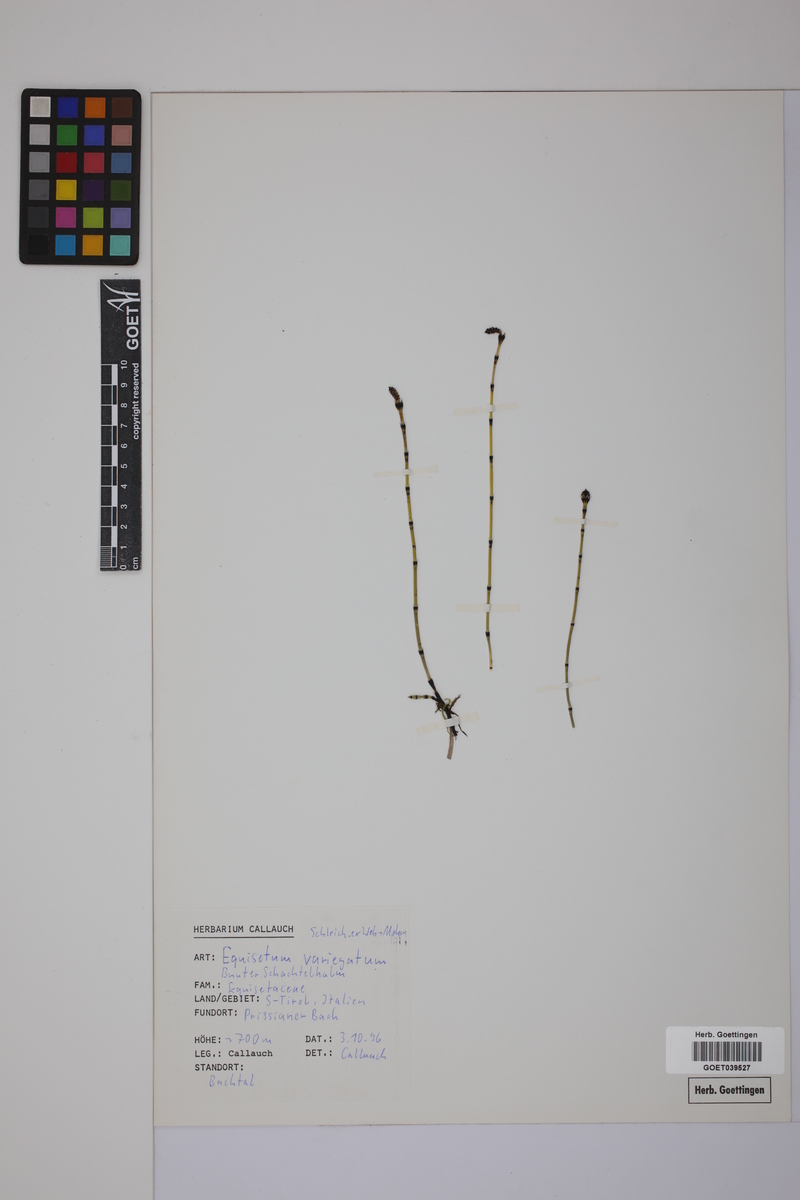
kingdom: Plantae
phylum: Tracheophyta
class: Polypodiopsida
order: Equisetales
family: Equisetaceae
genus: Equisetum
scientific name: Equisetum variegatum
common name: Variegated horsetail
